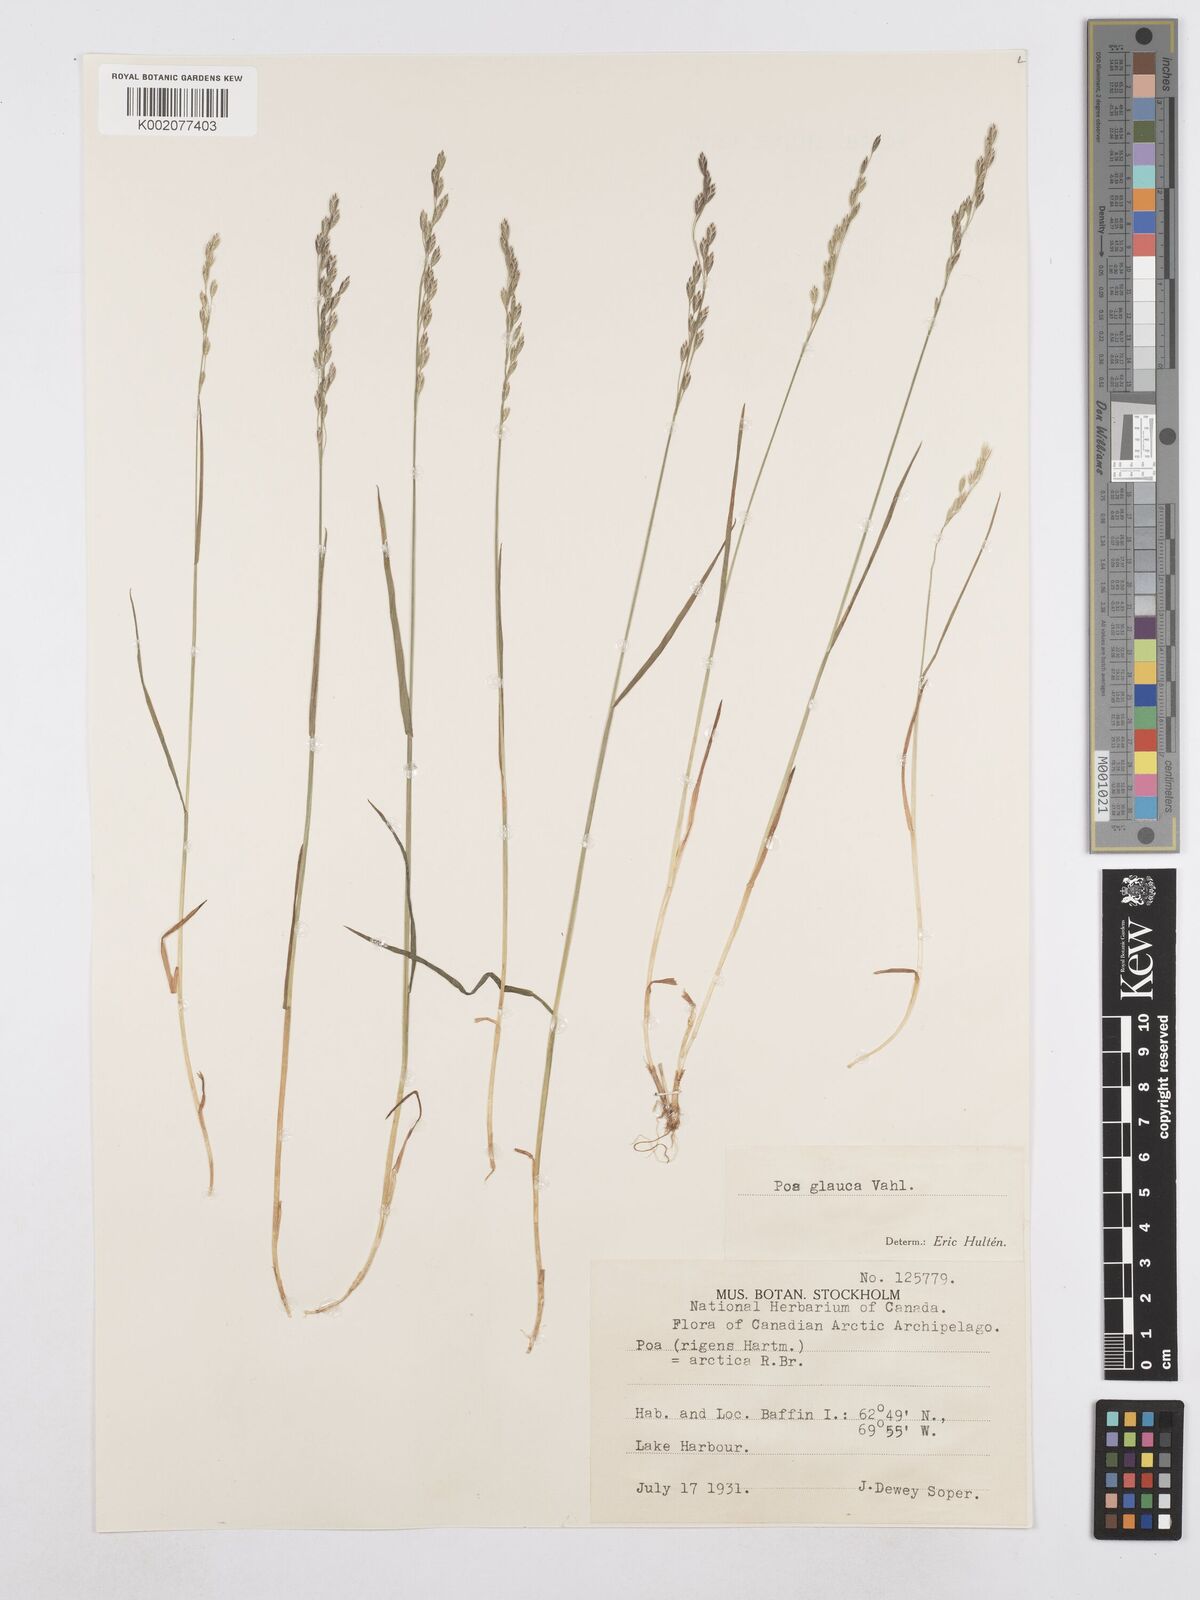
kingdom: Plantae
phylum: Tracheophyta
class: Liliopsida
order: Poales
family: Poaceae
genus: Poa
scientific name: Poa glauca
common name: Glaucous bluegrass
